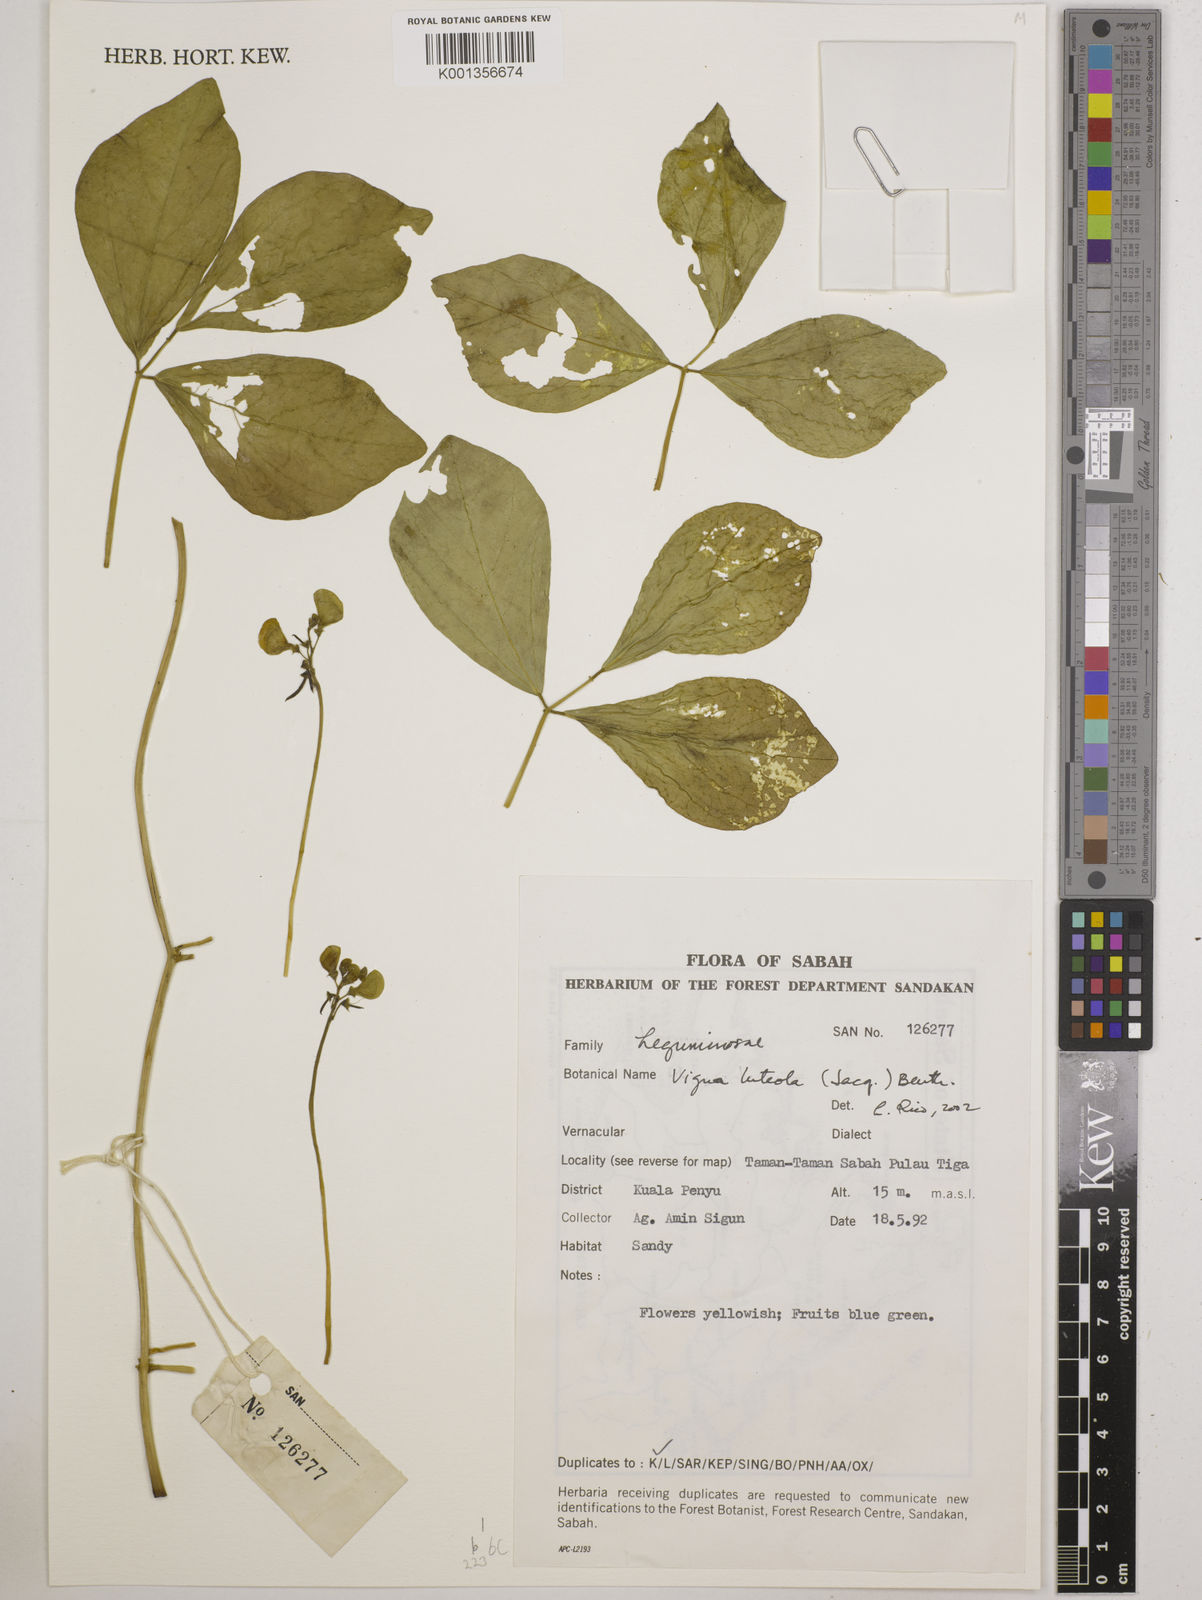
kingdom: Plantae
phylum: Tracheophyta
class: Magnoliopsida
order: Fabales
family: Fabaceae
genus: Vigna
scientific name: Vigna luteola
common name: Hairypod cowpea
